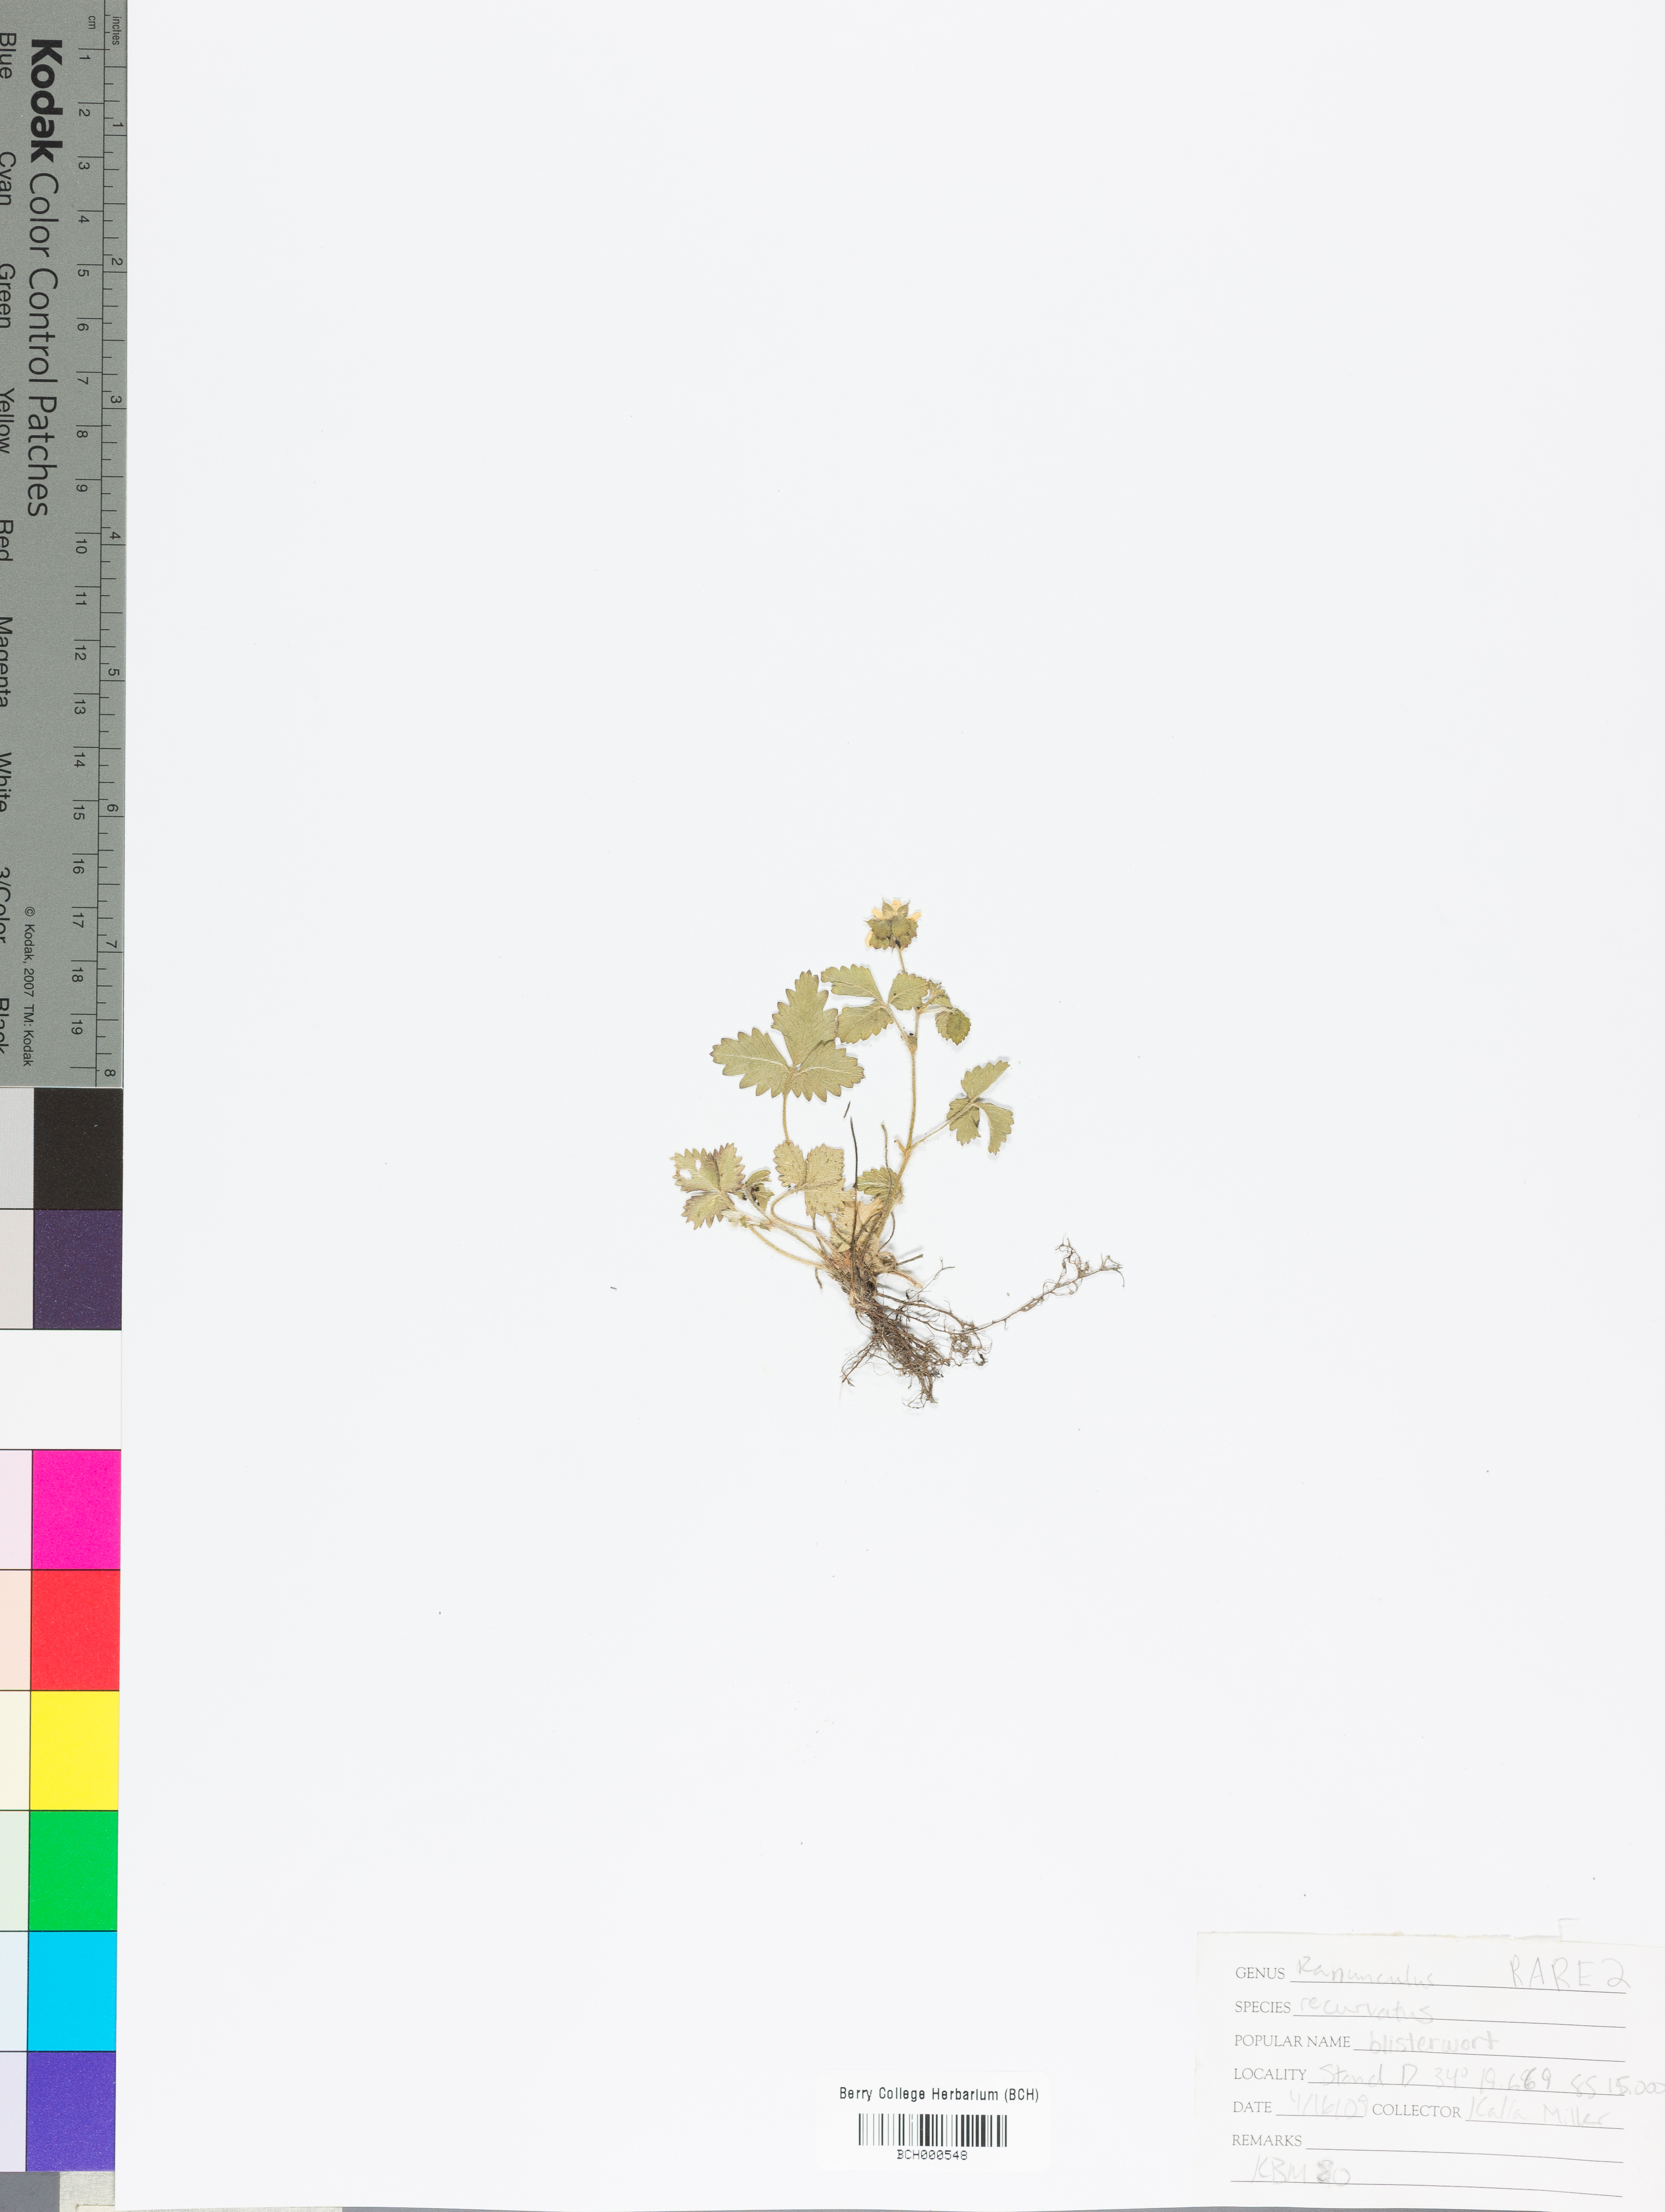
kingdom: Plantae
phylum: Tracheophyta
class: Magnoliopsida
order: Ranunculales
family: Ranunculaceae
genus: Ranunculus
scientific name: Ranunculus recurvatus
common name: Blisterwort
